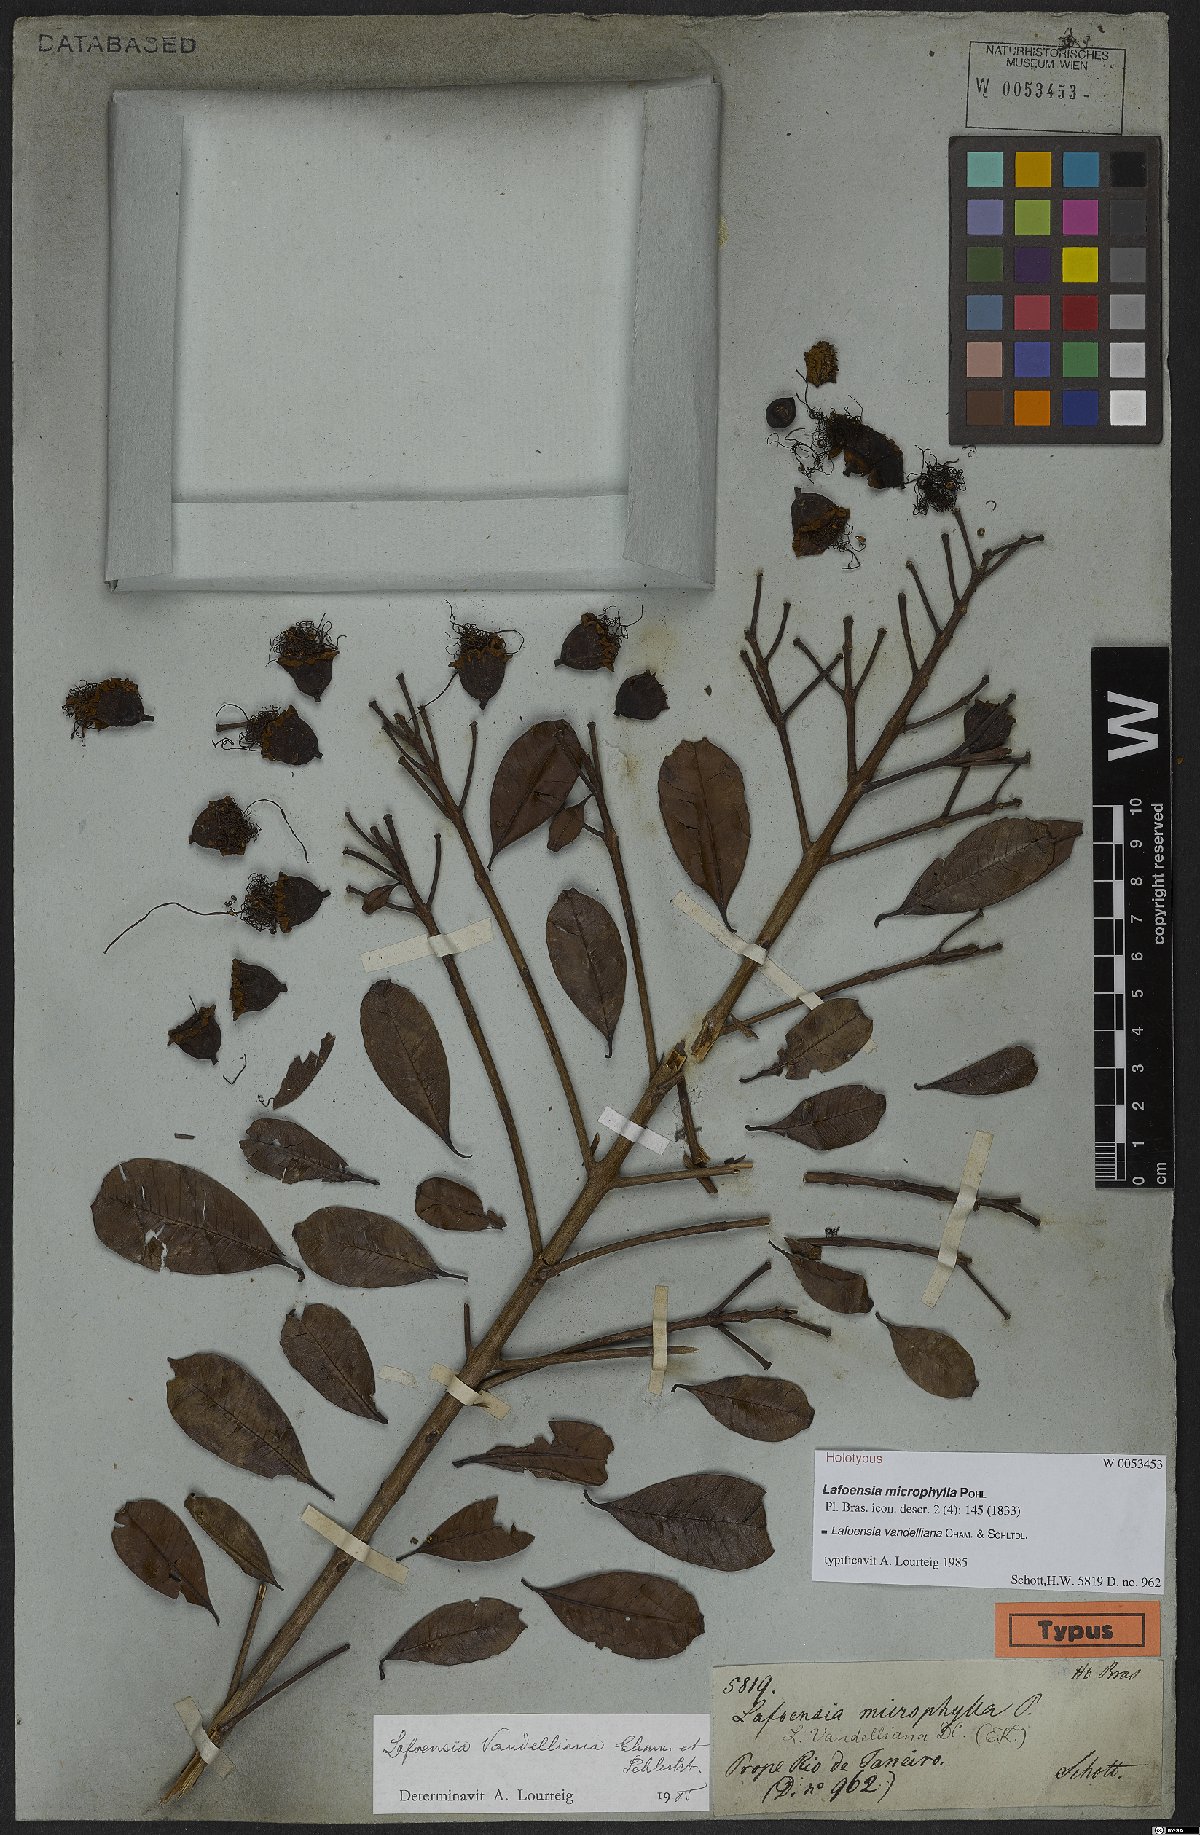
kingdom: Plantae
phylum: Tracheophyta
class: Magnoliopsida
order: Myrtales
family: Lythraceae
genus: Lafoensia
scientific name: Lafoensia vandelliana
